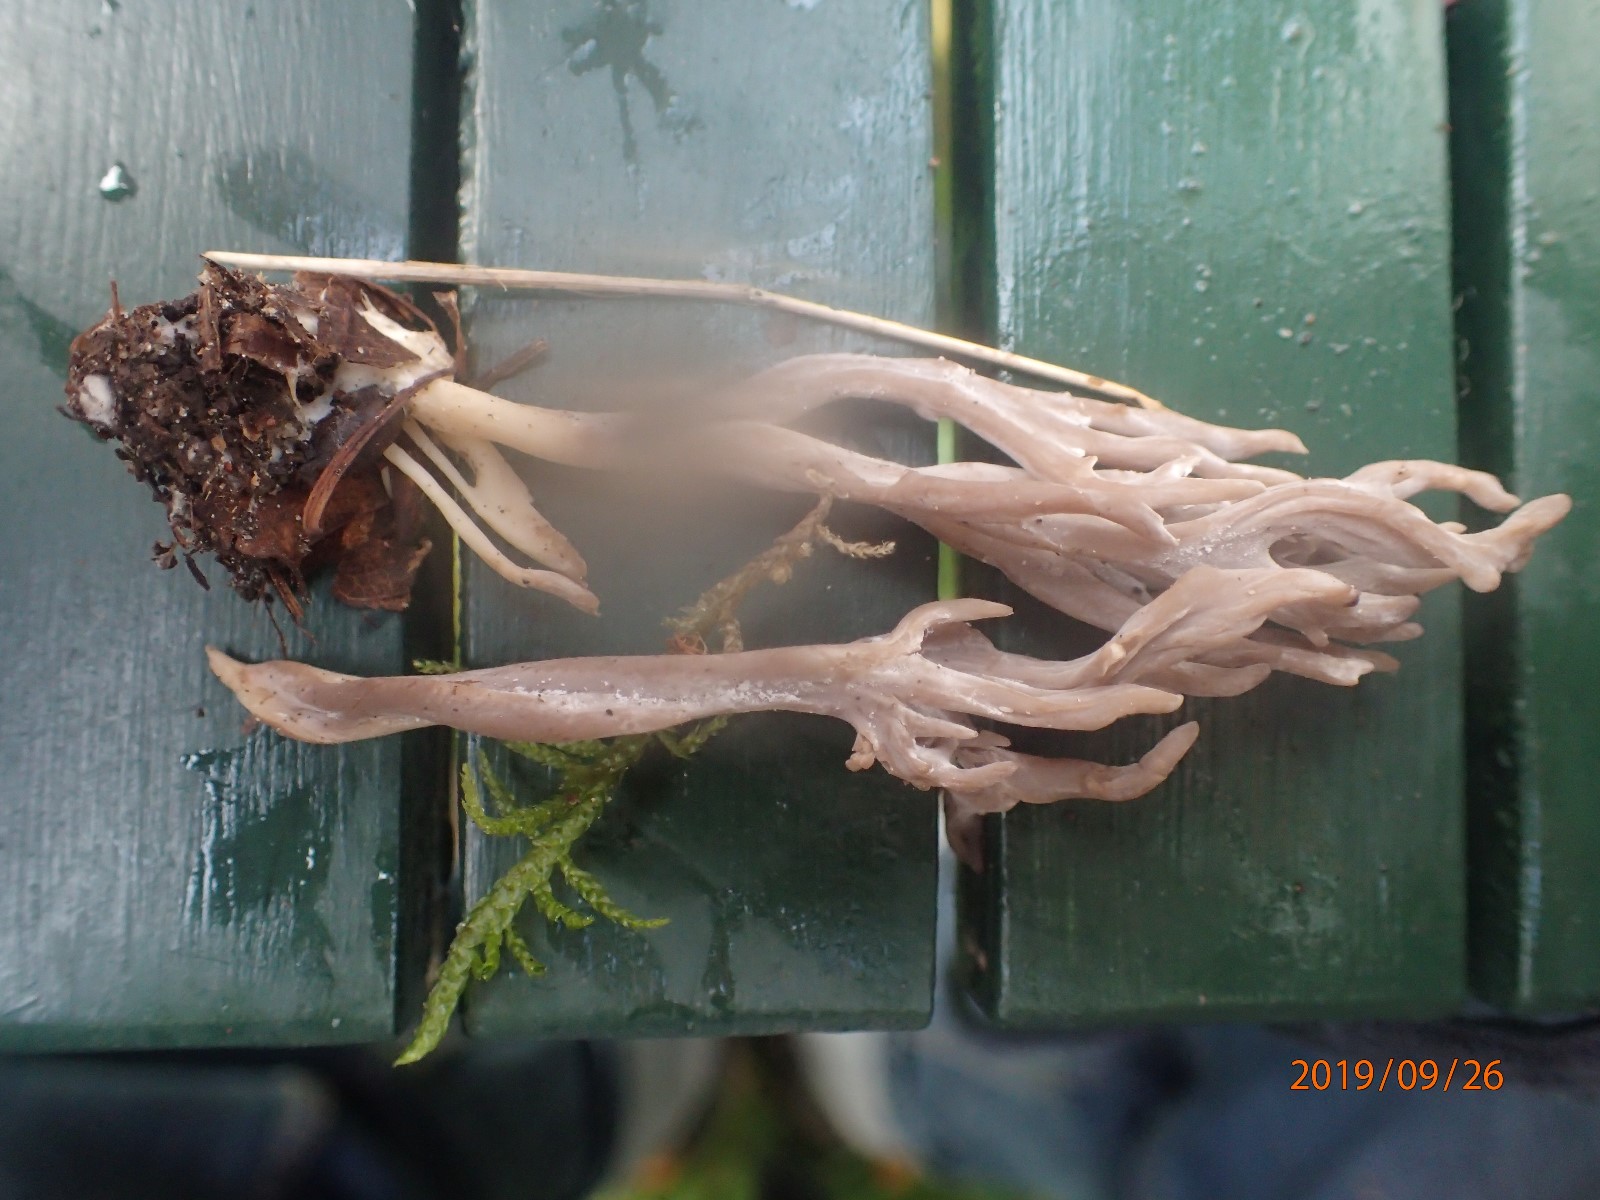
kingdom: Fungi
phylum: Basidiomycota
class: Agaricomycetes
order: Cantharellales
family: Hydnaceae
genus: Clavulina
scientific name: Clavulina
